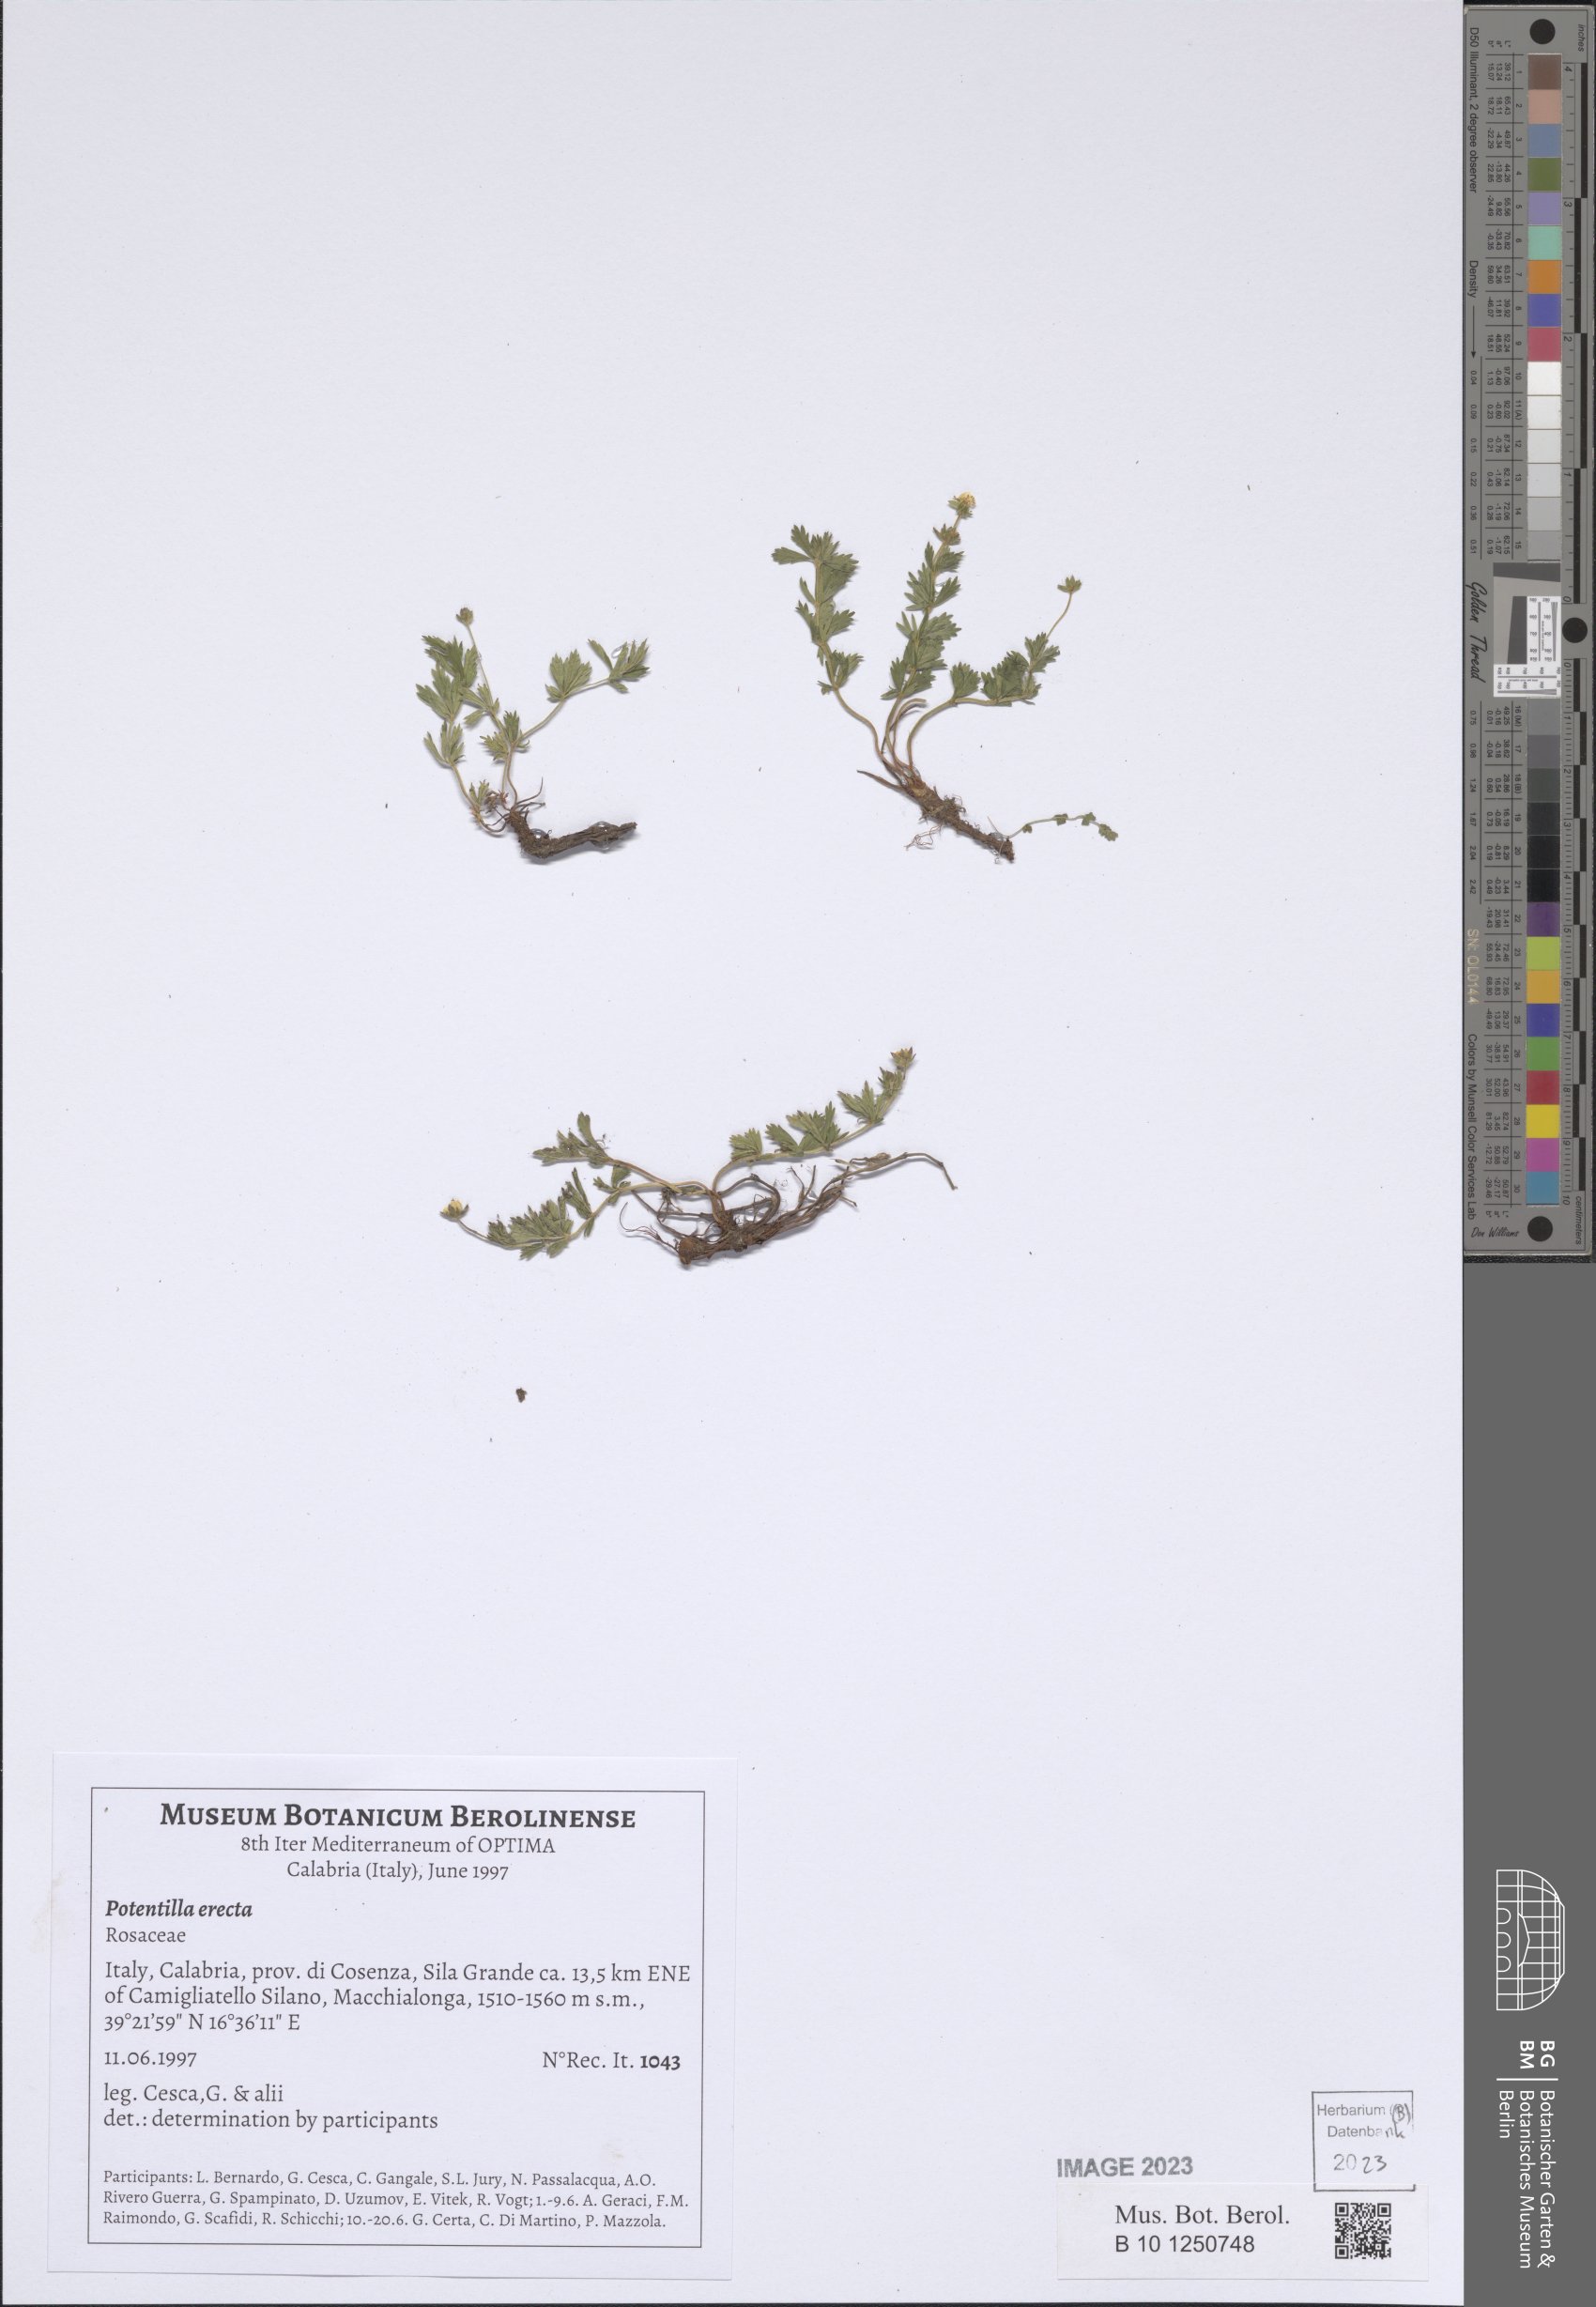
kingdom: Plantae
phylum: Tracheophyta
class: Magnoliopsida
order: Rosales
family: Rosaceae
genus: Potentilla
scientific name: Potentilla erecta
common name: Tormentil
